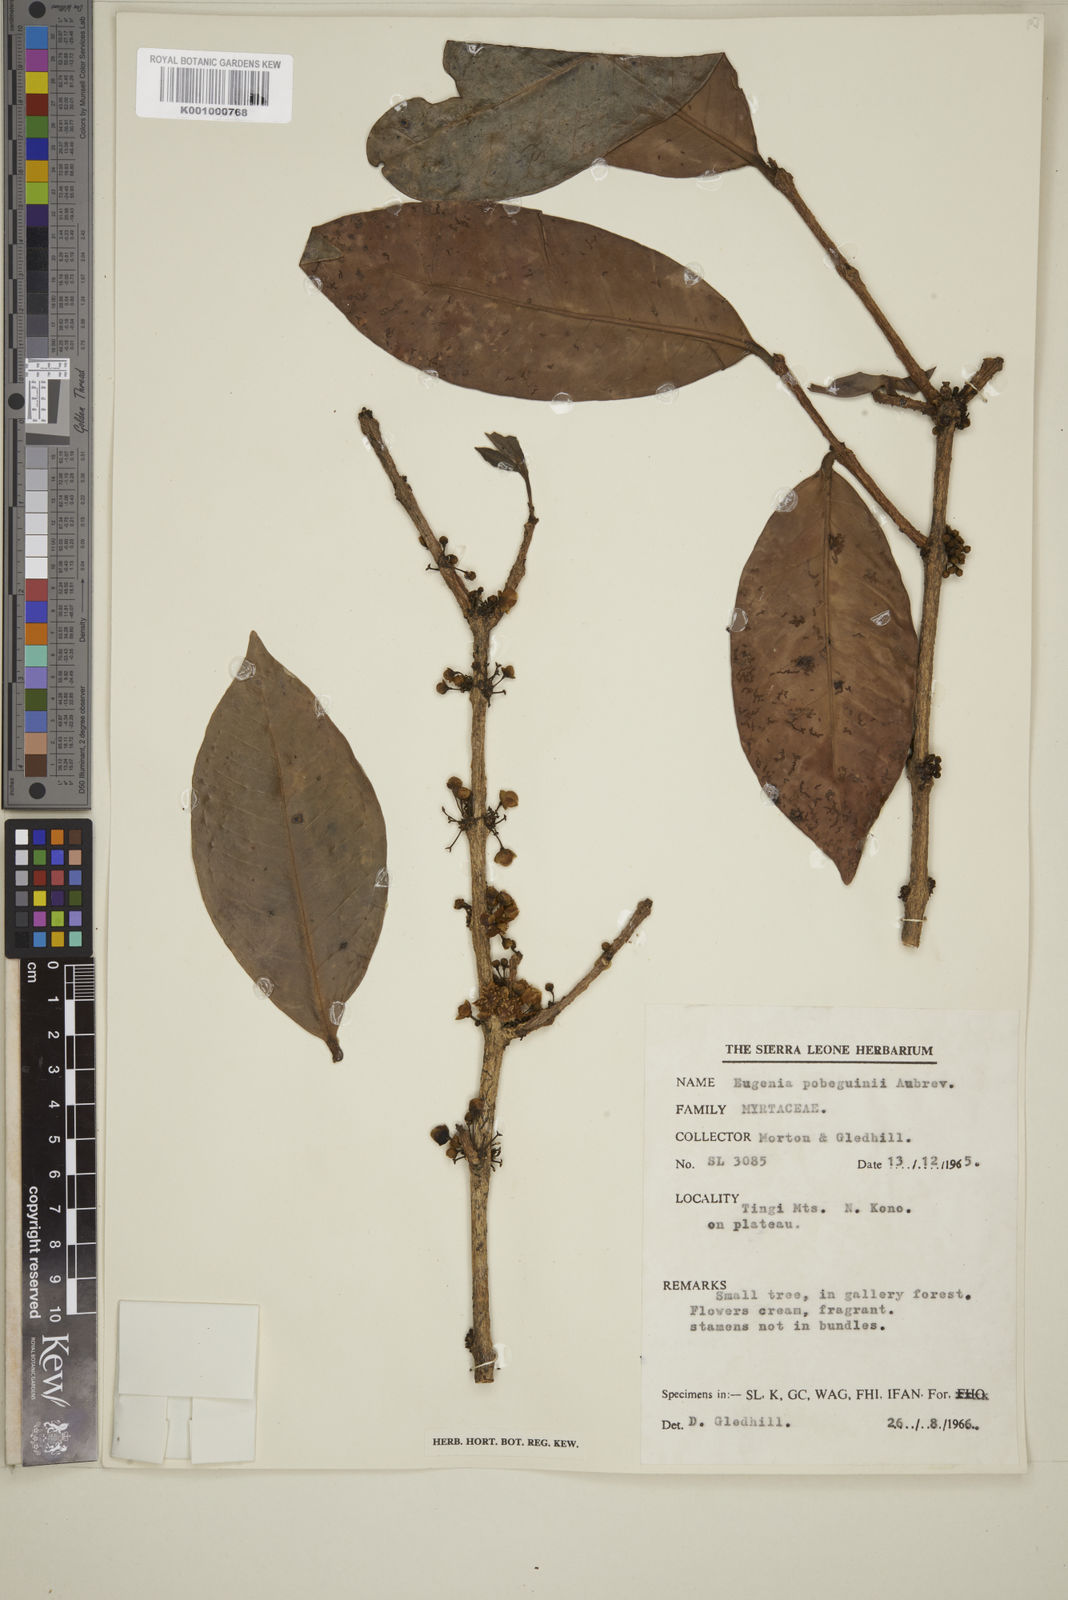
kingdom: Plantae
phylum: Tracheophyta
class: Magnoliopsida
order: Myrtales
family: Myrtaceae
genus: Eugenia
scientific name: Eugenia
